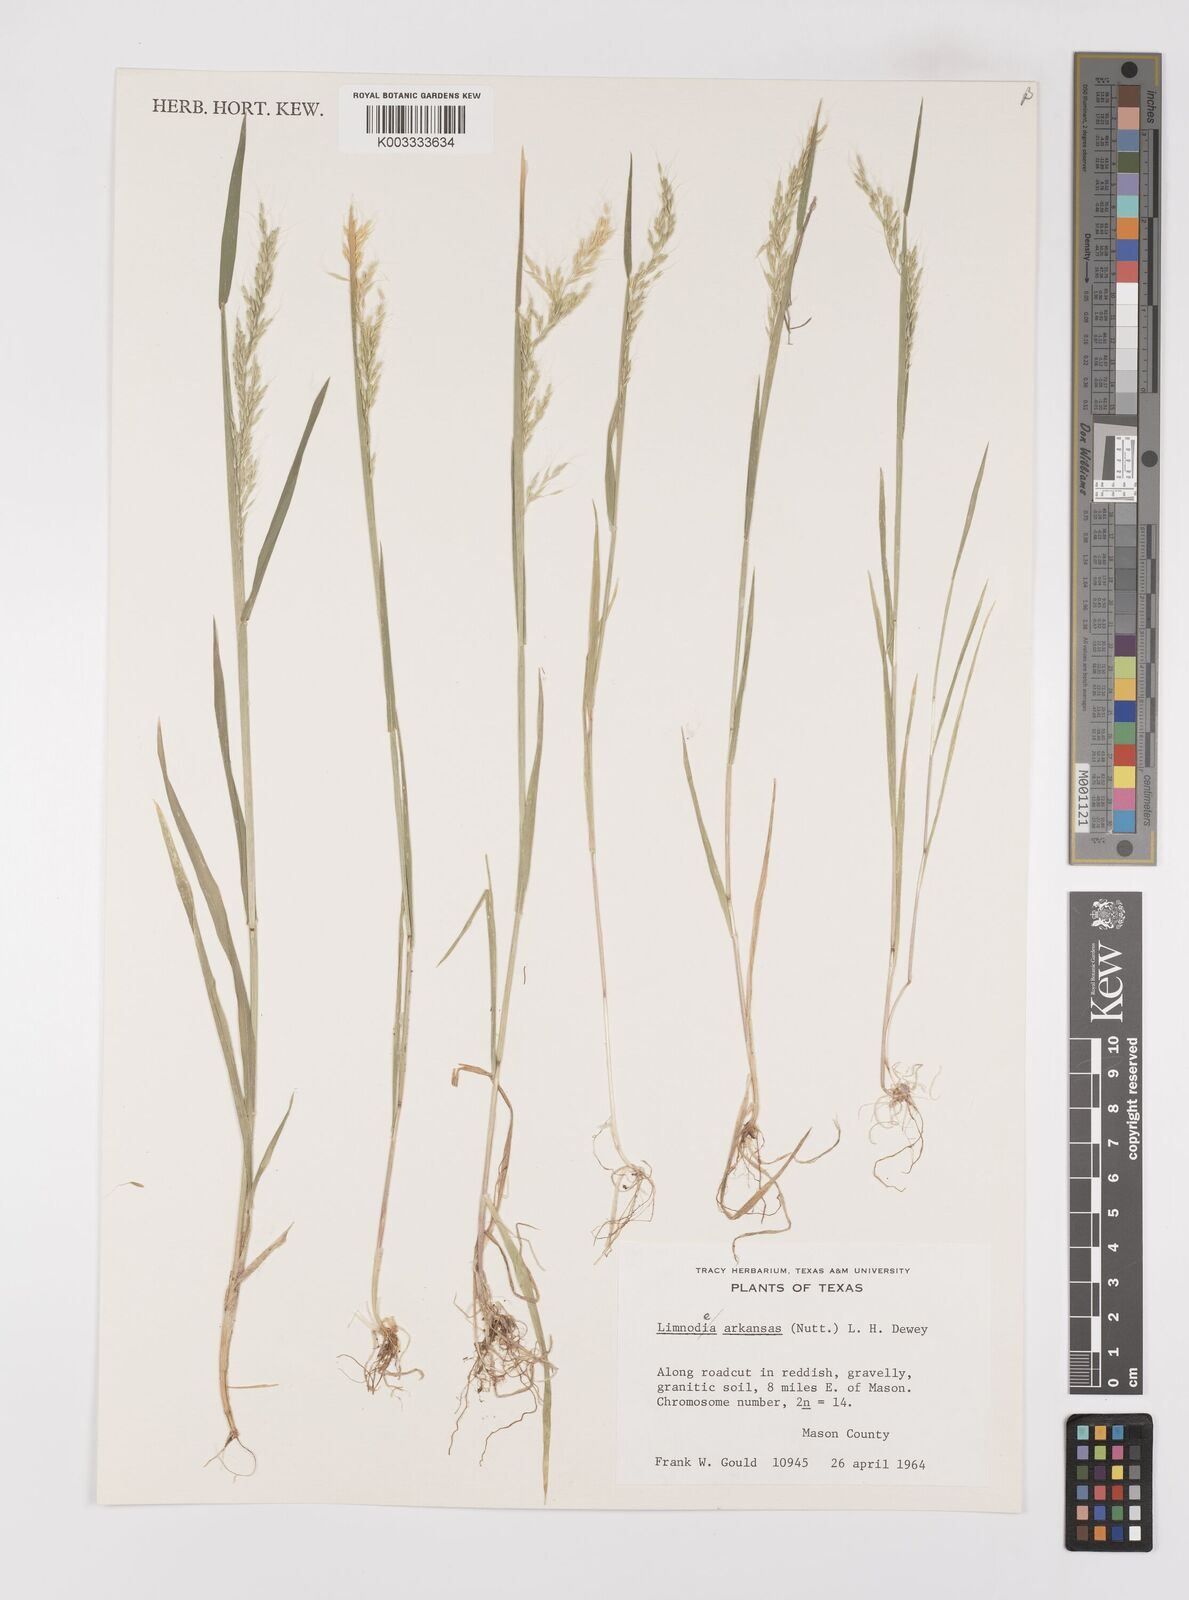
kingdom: Plantae
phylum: Tracheophyta
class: Liliopsida
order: Poales
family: Poaceae
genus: Limnodea
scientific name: Limnodea arkansana
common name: Ozark-grass
